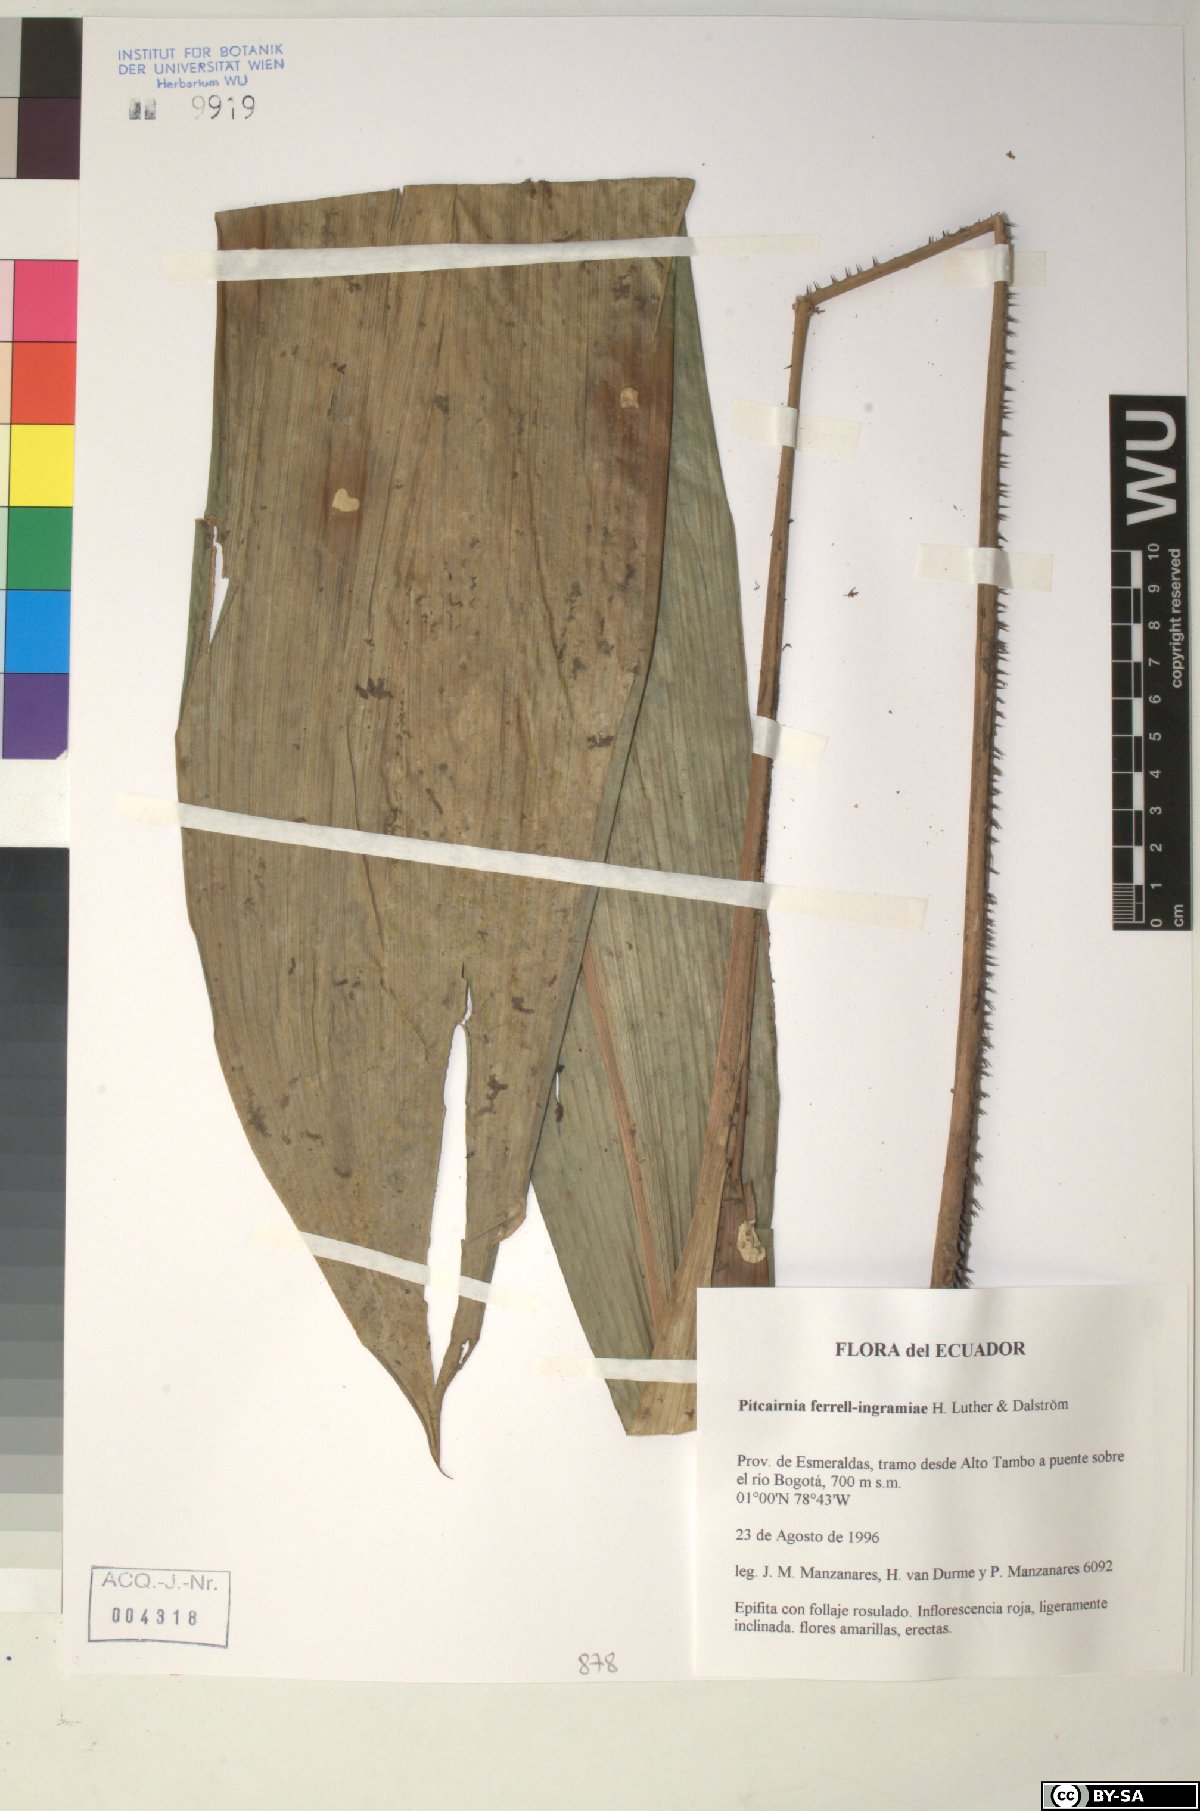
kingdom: Plantae
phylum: Tracheophyta
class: Liliopsida
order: Poales
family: Bromeliaceae
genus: Pitcairnia
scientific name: Pitcairnia ferrell-ingramiae
